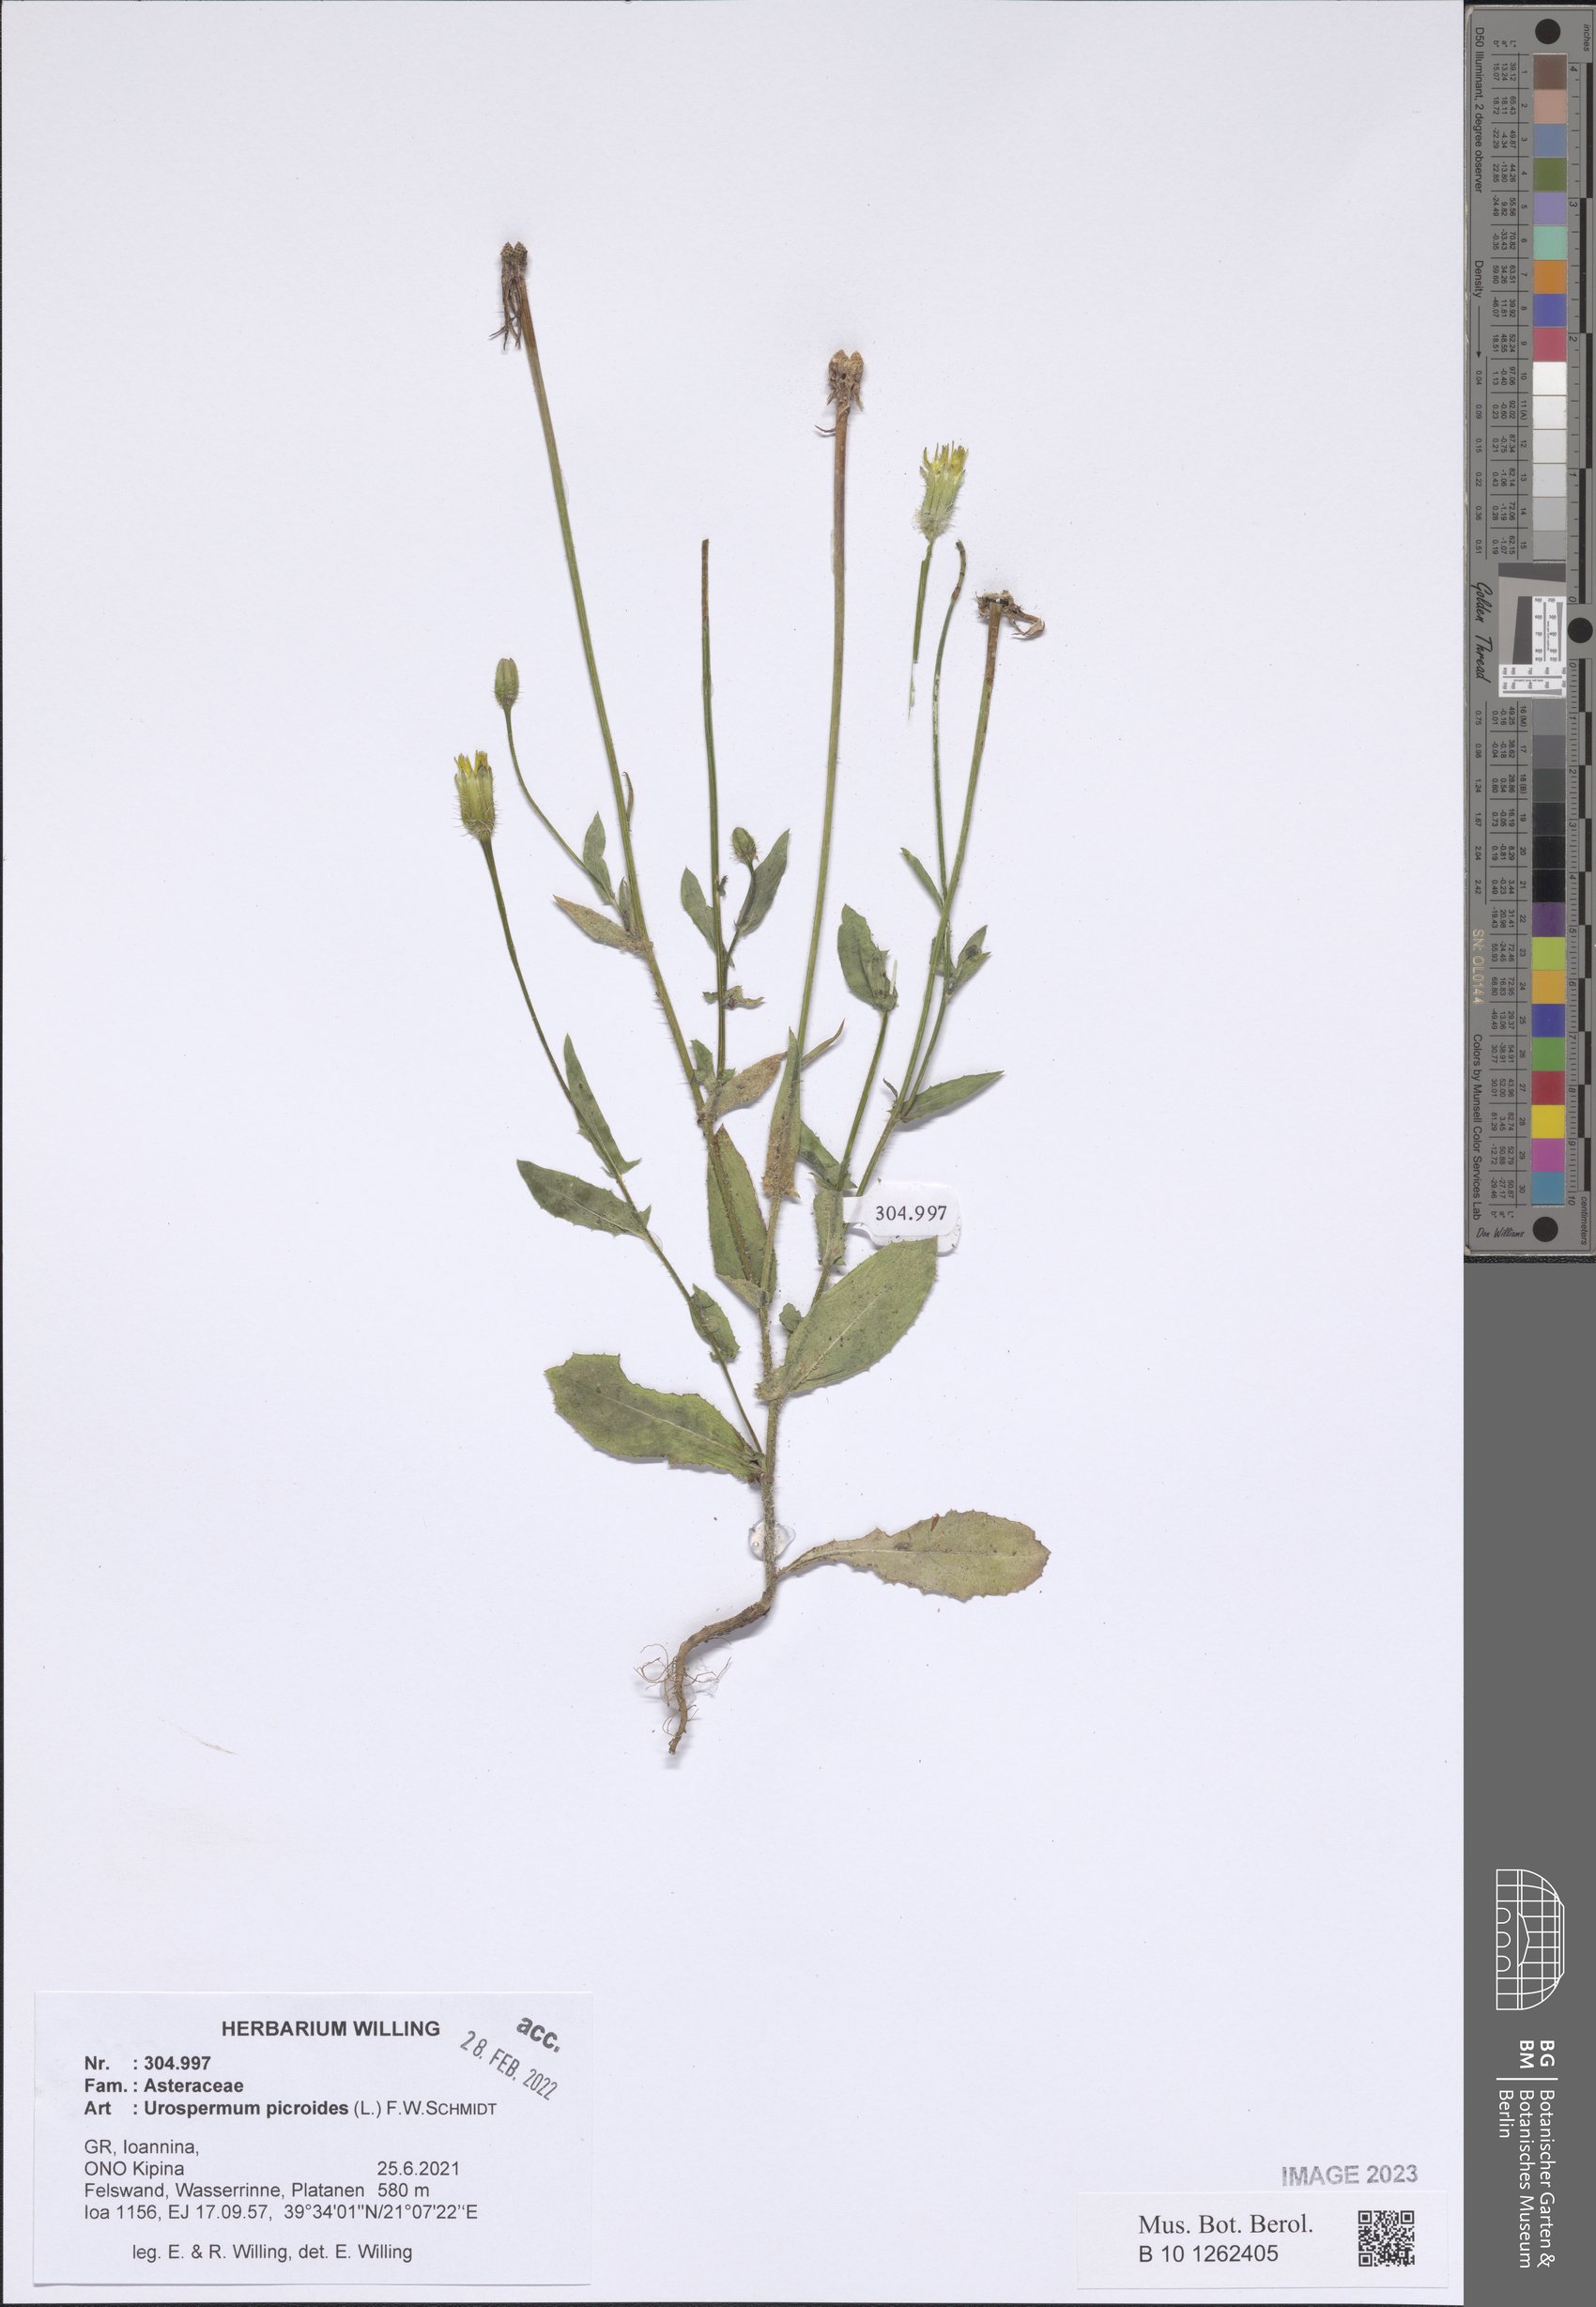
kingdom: Plantae
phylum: Tracheophyta
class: Magnoliopsida
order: Asterales
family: Asteraceae
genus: Urospermum
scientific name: Urospermum picroides
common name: False hawkbit
